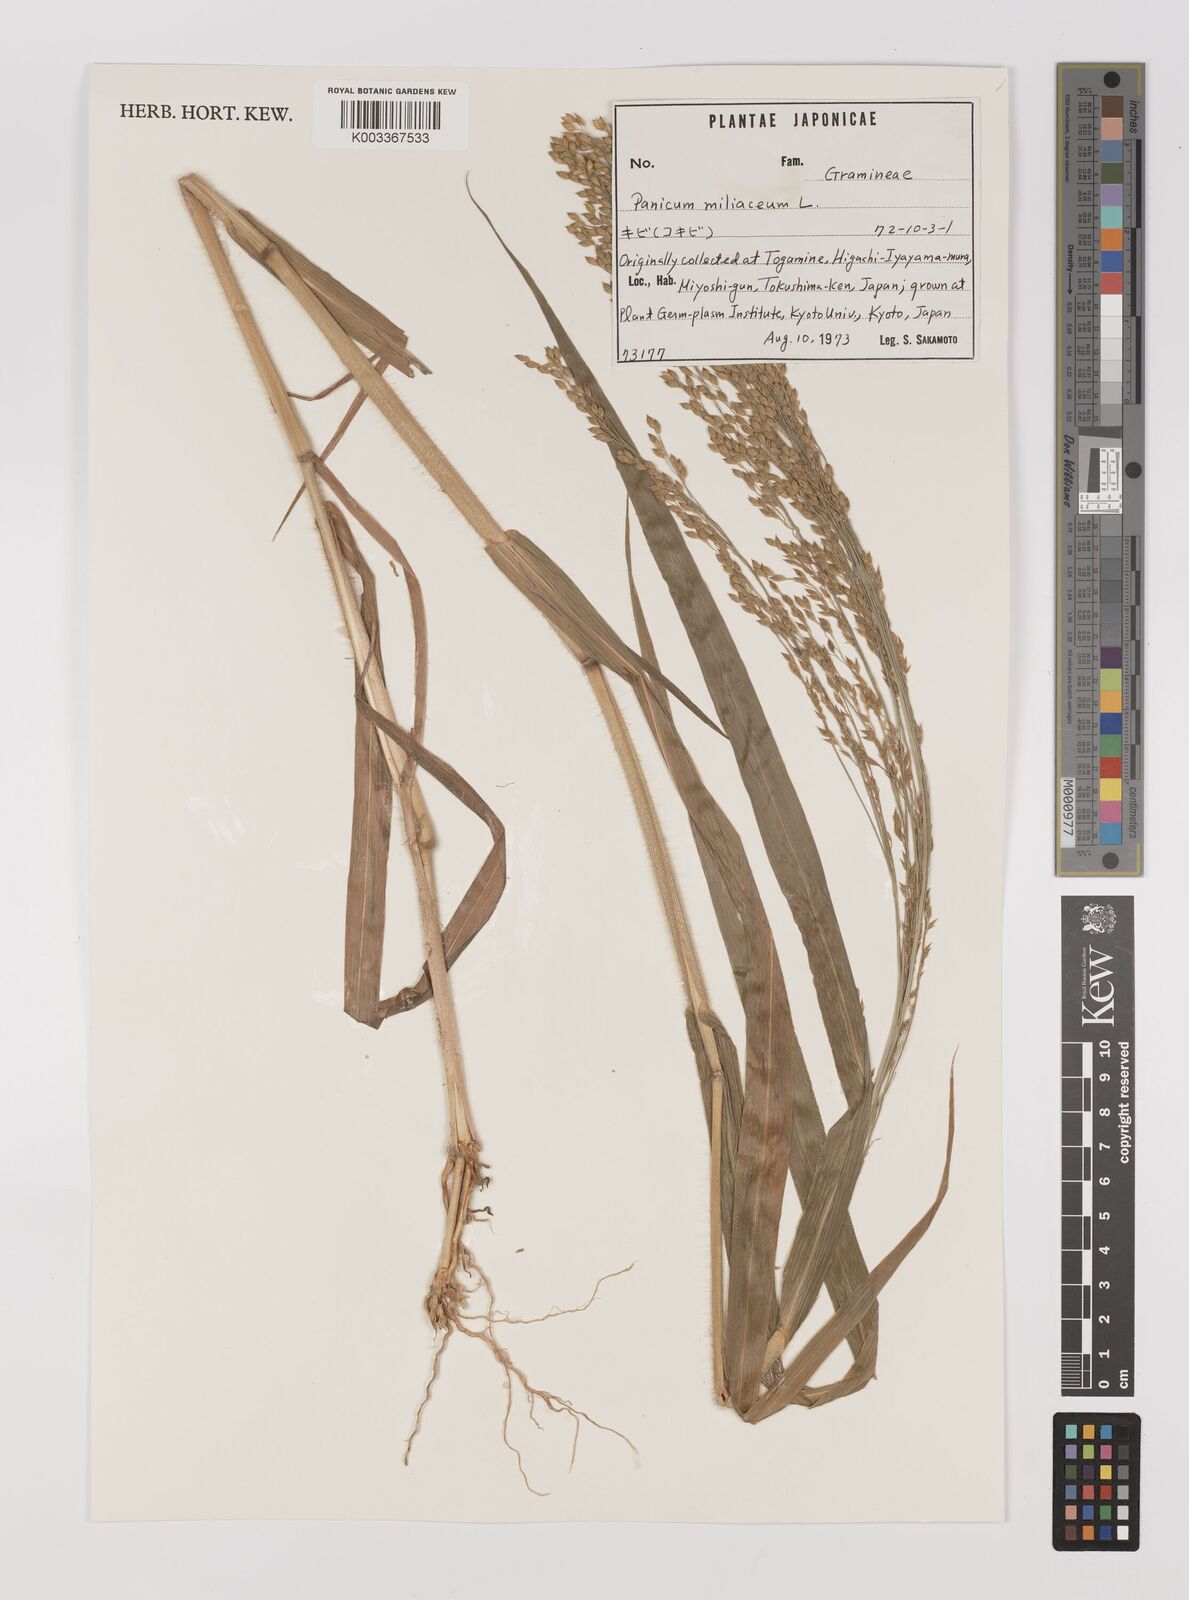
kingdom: Plantae
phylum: Tracheophyta
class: Liliopsida
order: Poales
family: Poaceae
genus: Panicum
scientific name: Panicum miliaceum
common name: Common millet
